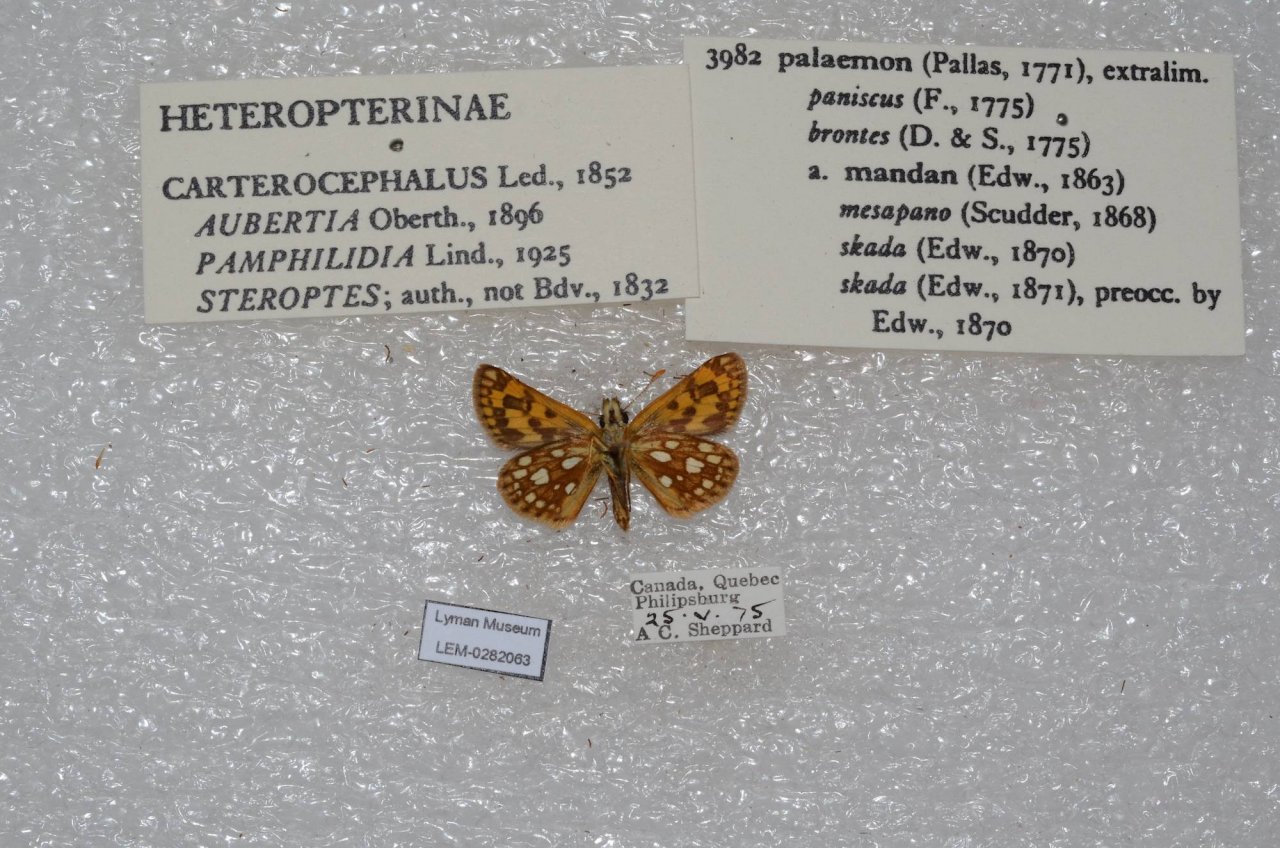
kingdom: Animalia
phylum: Arthropoda
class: Insecta
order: Lepidoptera
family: Hesperiidae
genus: Carterocephalus
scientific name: Carterocephalus palaemon
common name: Chequered Skipper
